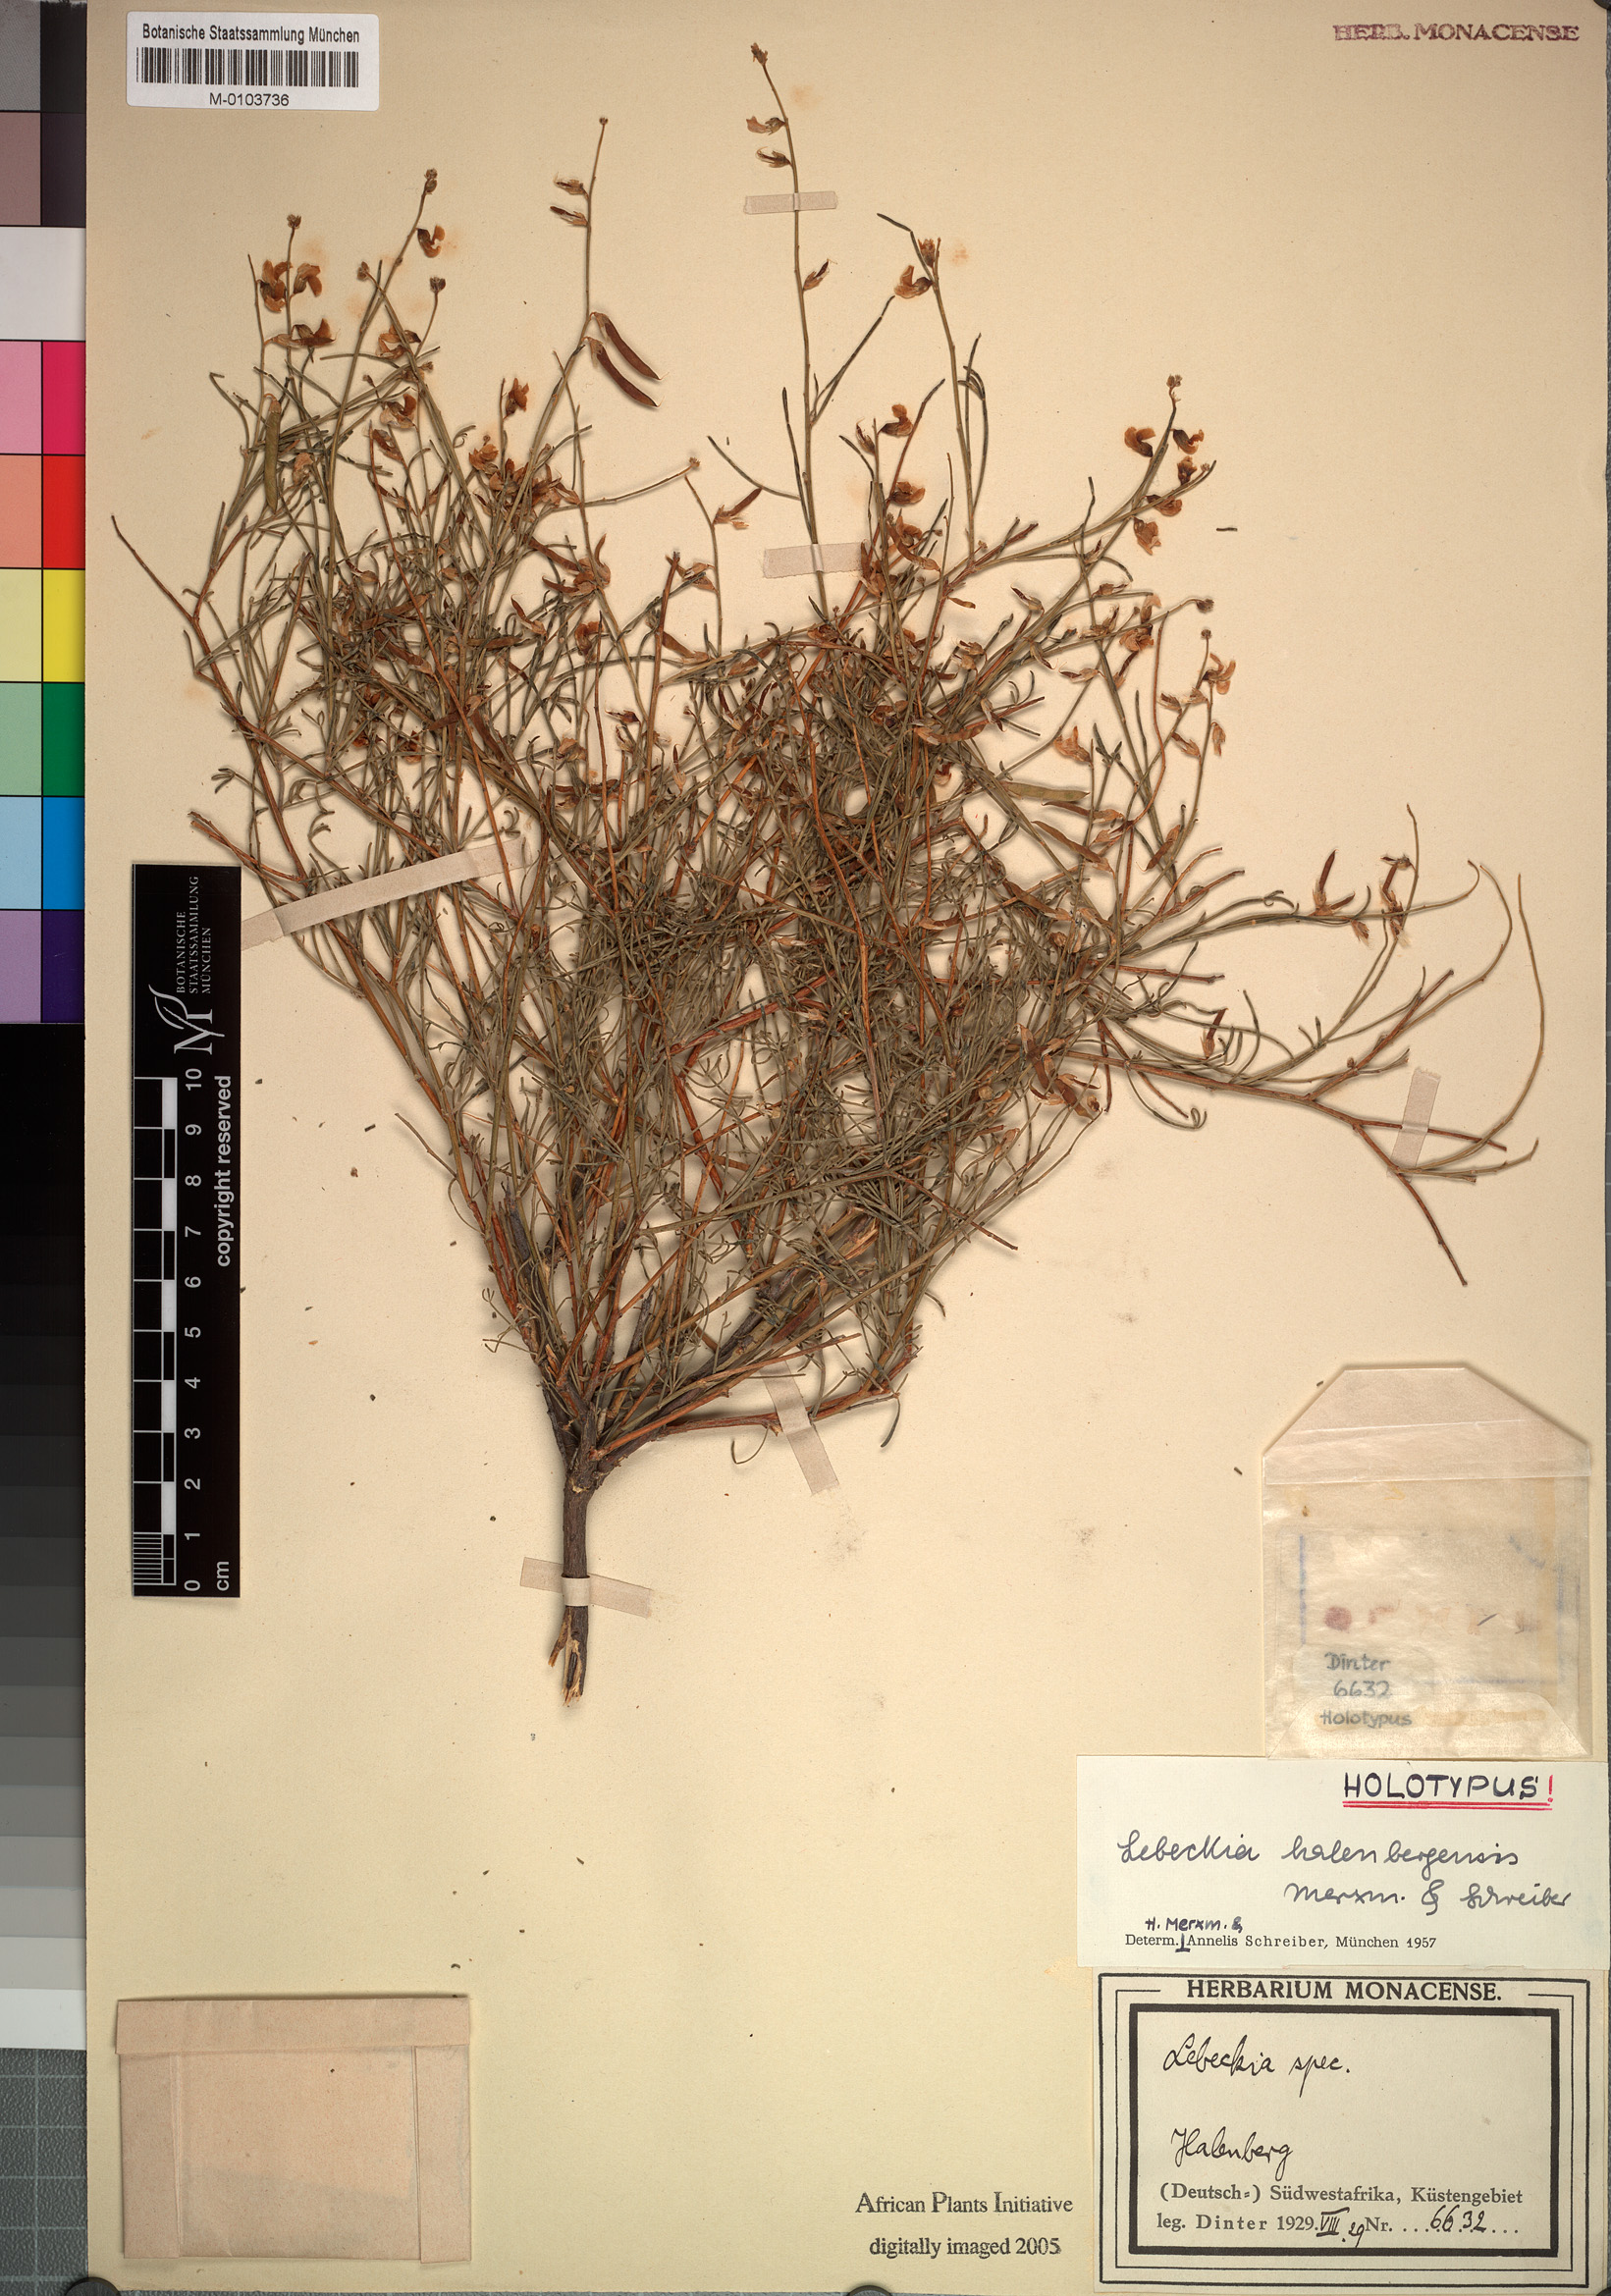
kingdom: Plantae
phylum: Tracheophyta
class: Magnoliopsida
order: Fabales
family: Fabaceae
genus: Calobota
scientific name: Calobota halenbergensis
